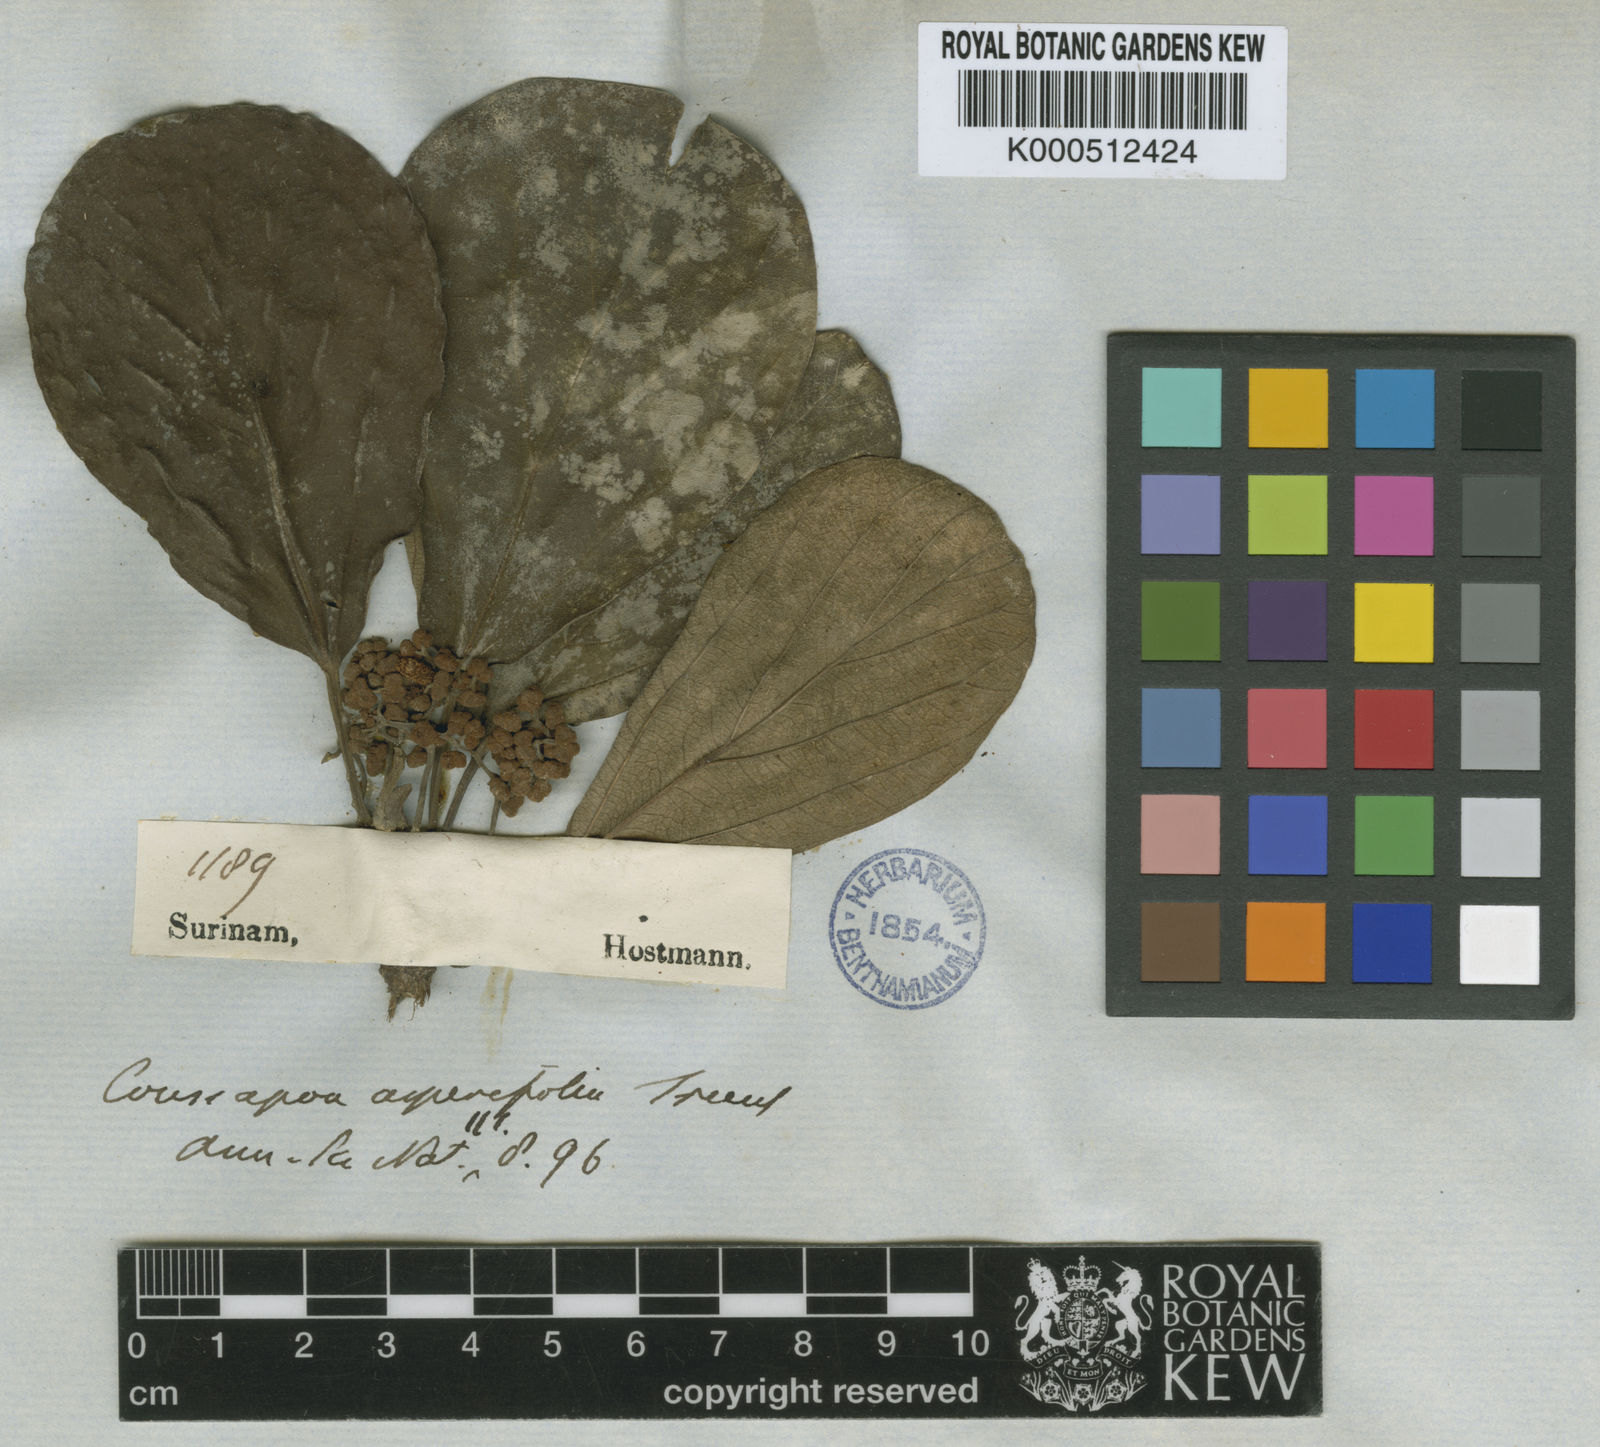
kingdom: Plantae
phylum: Tracheophyta
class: Magnoliopsida
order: Rosales
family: Urticaceae
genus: Coussapoa
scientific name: Coussapoa
